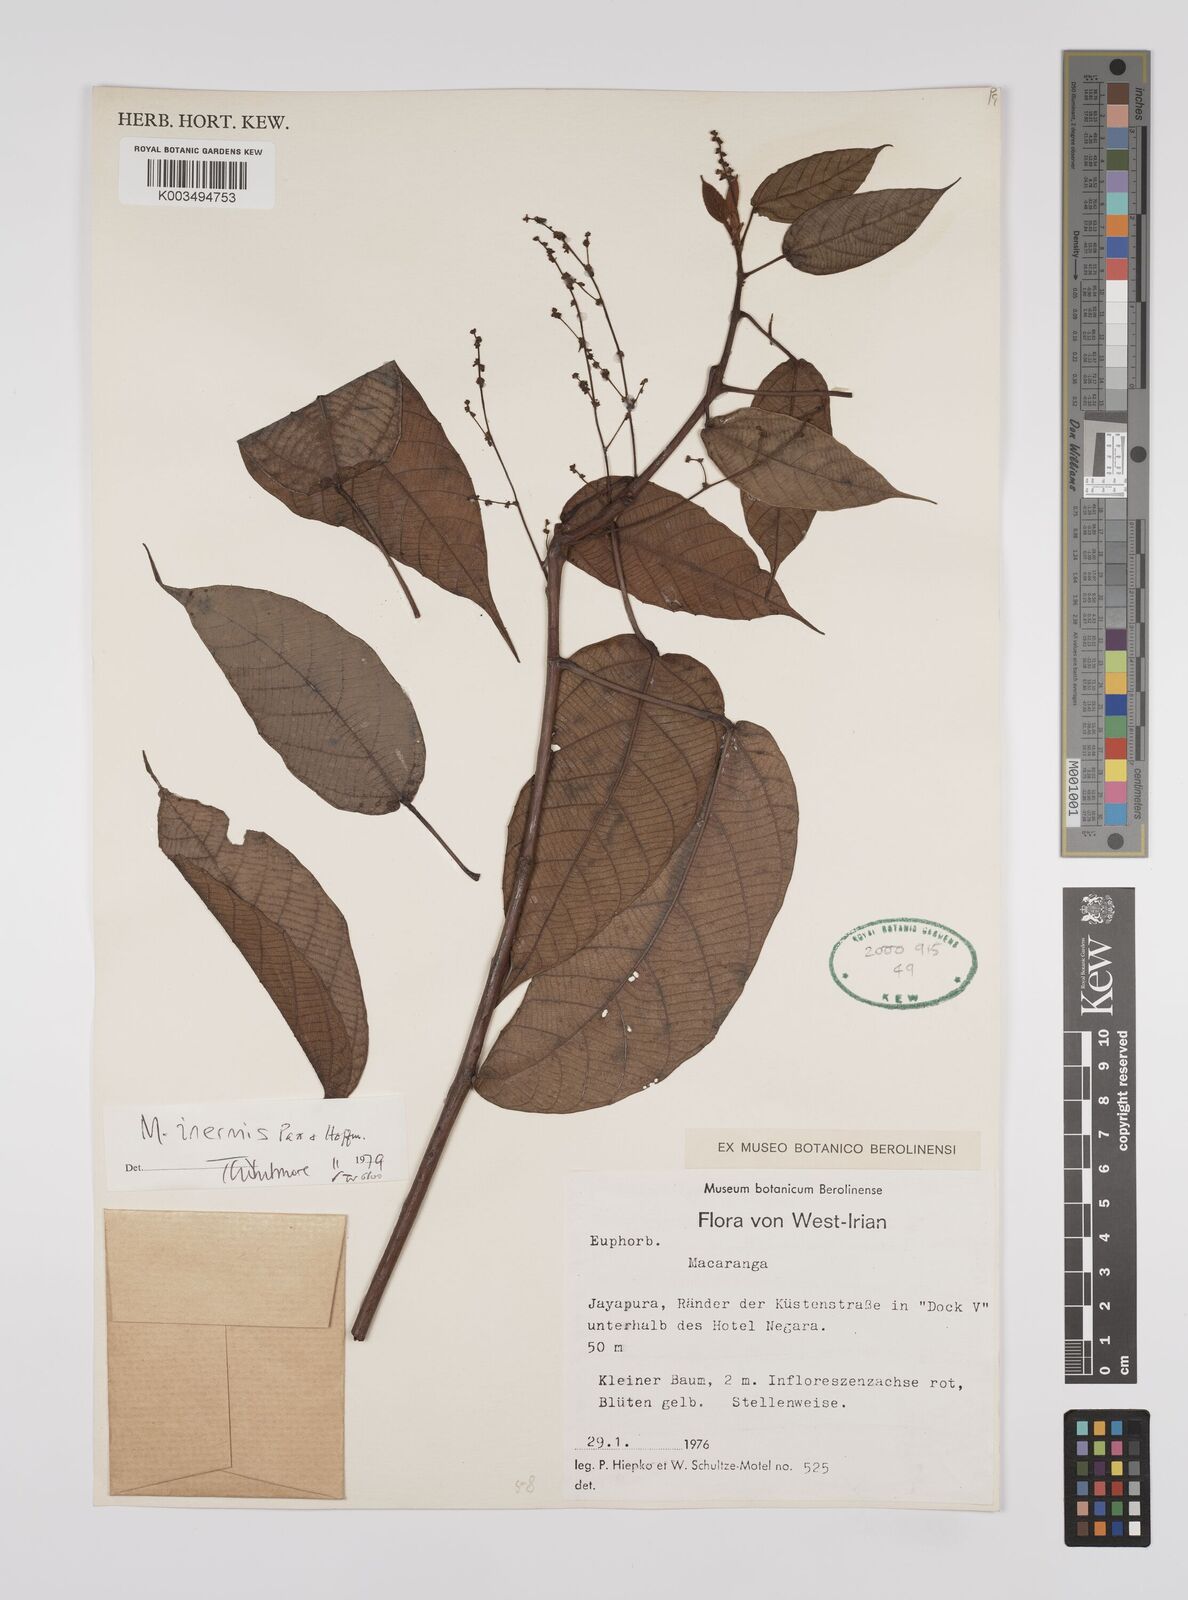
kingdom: Plantae
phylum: Tracheophyta
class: Magnoliopsida
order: Malpighiales
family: Euphorbiaceae
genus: Macaranga
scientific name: Macaranga inermis
